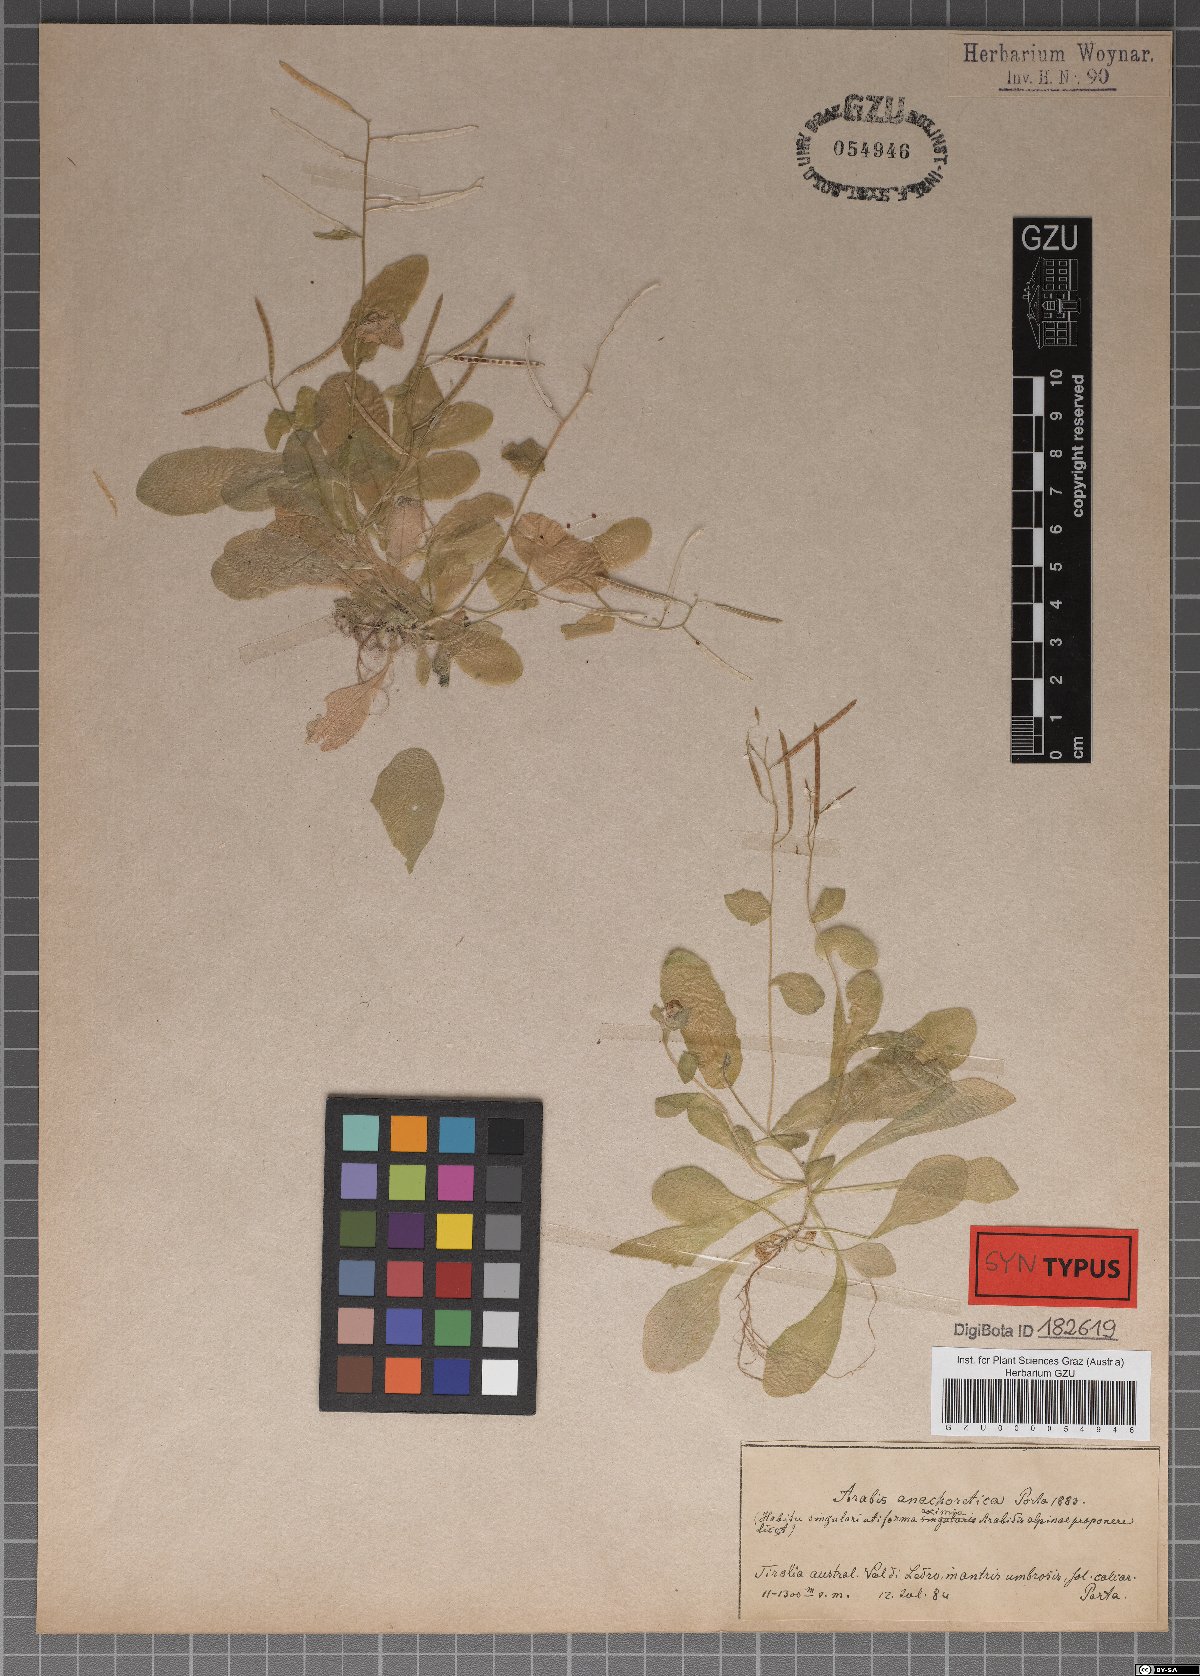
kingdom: Plantae
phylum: Tracheophyta
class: Magnoliopsida
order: Brassicales
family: Brassicaceae
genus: Arabis
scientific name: Arabis anachoretica
